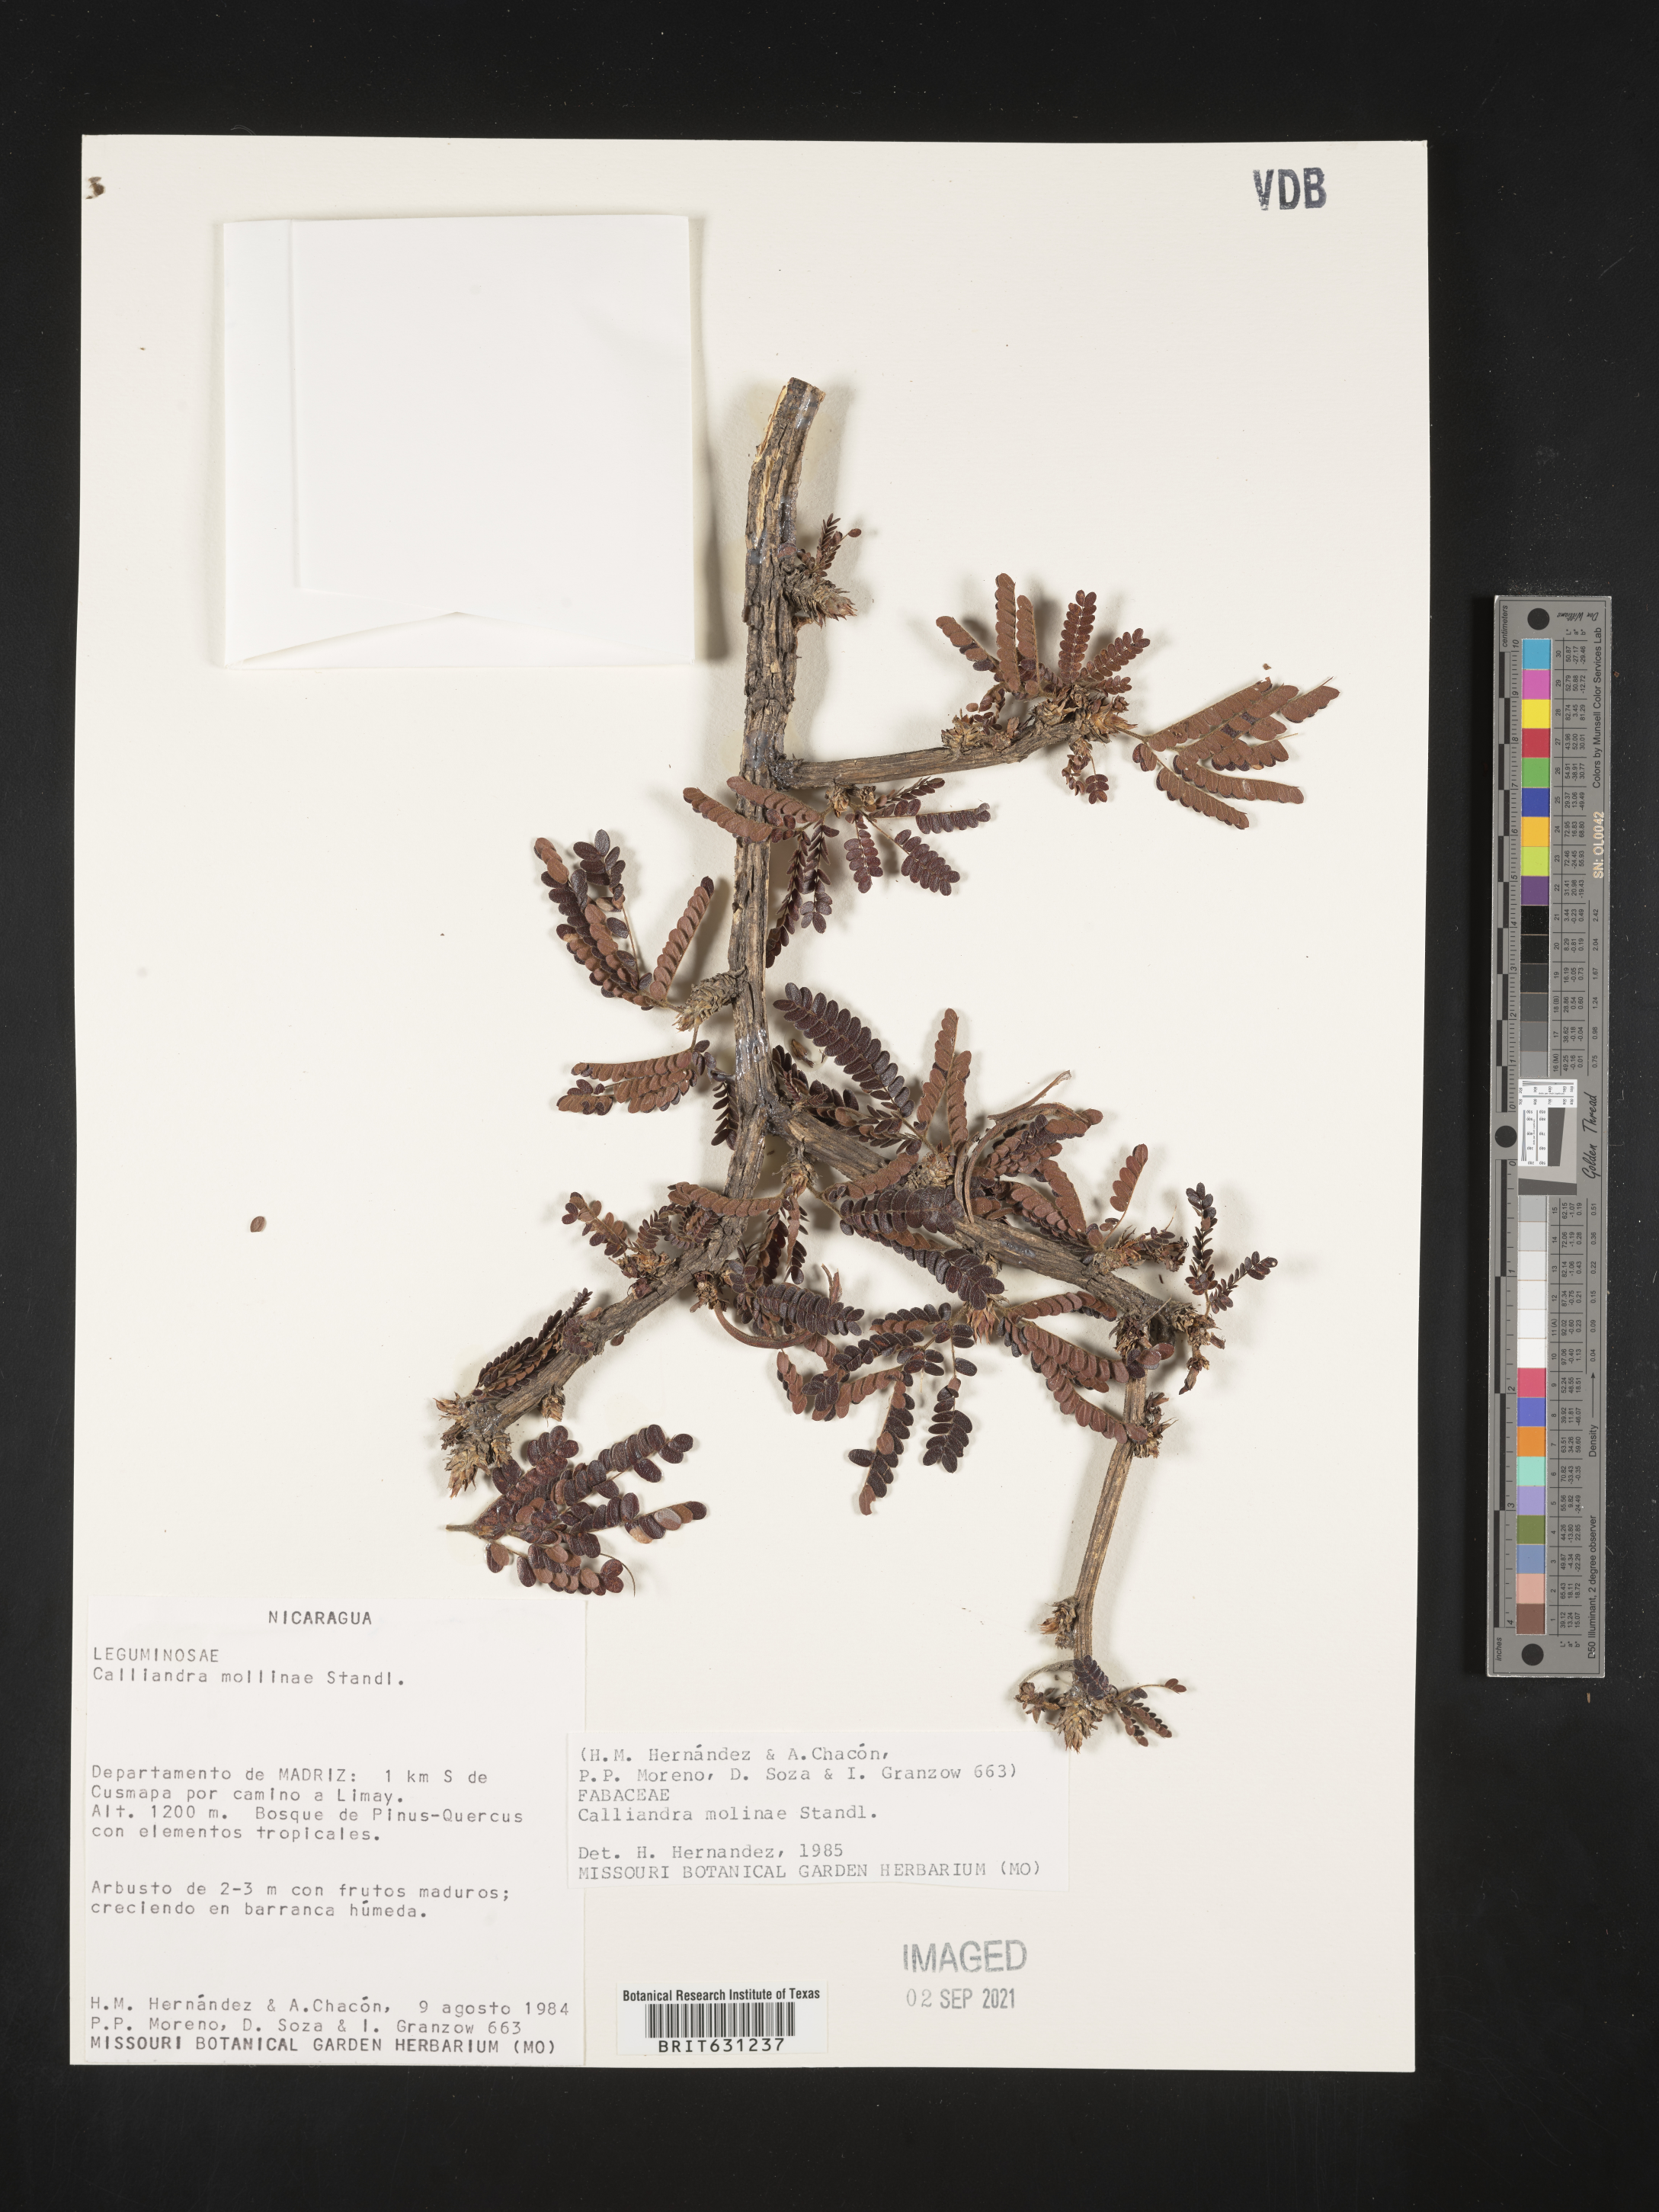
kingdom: Plantae
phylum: Tracheophyta
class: Magnoliopsida
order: Fabales
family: Fabaceae
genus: Calliandra
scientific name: Calliandra molinae
